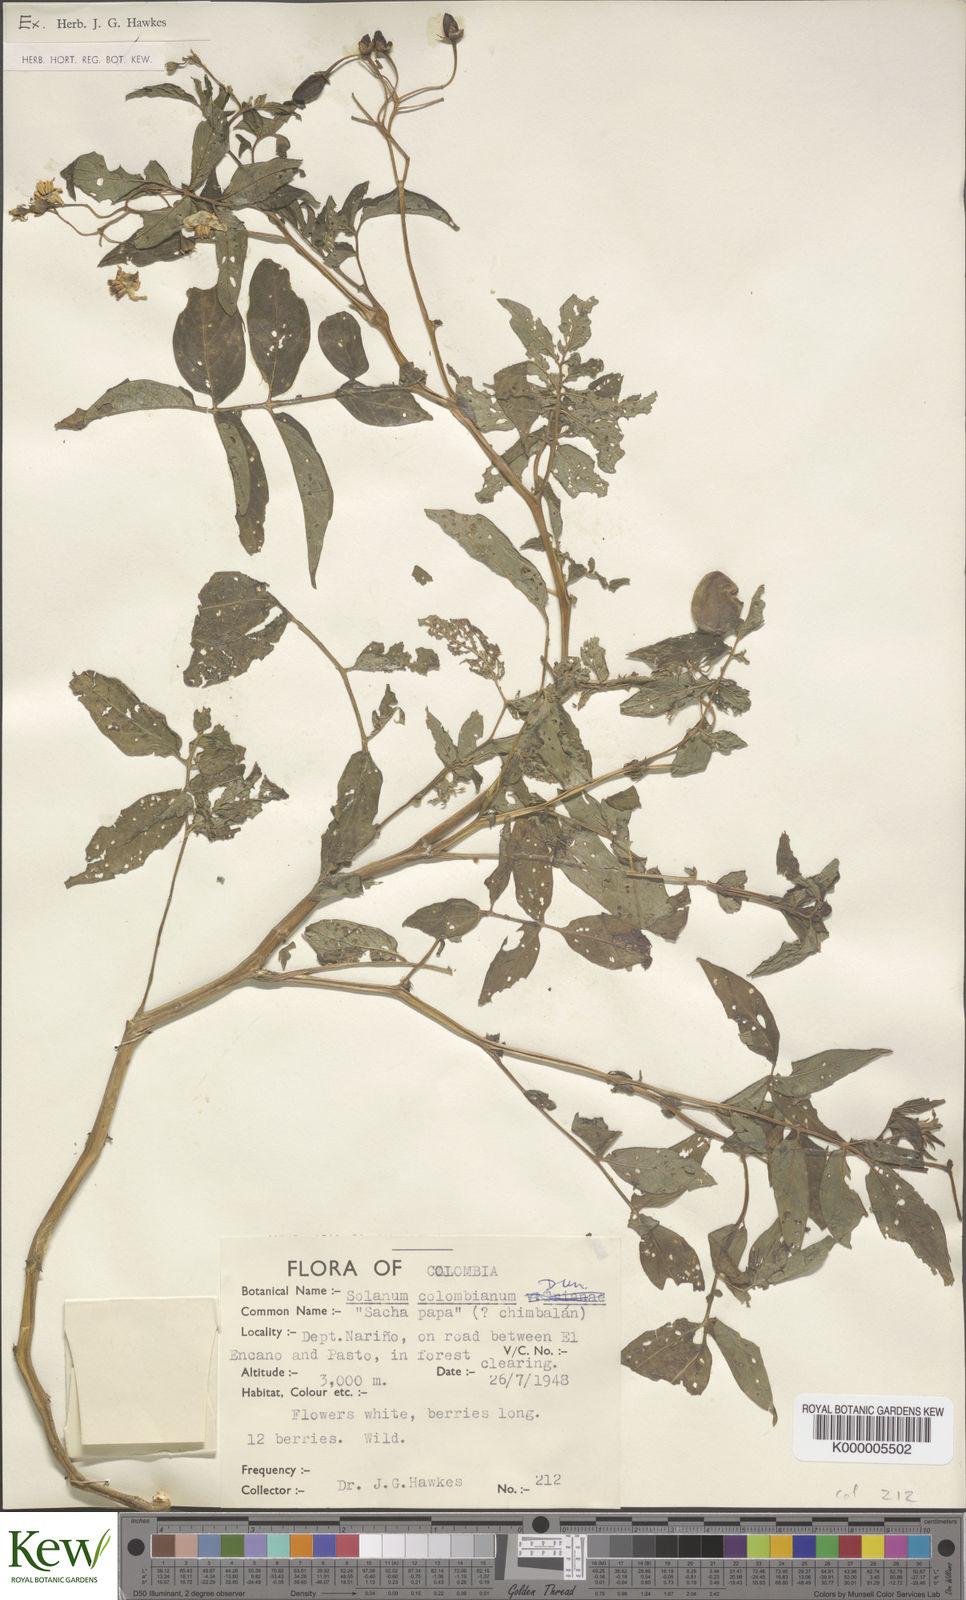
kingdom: Plantae
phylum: Tracheophyta
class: Magnoliopsida
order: Solanales
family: Solanaceae
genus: Solanum
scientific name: Solanum colombianum
